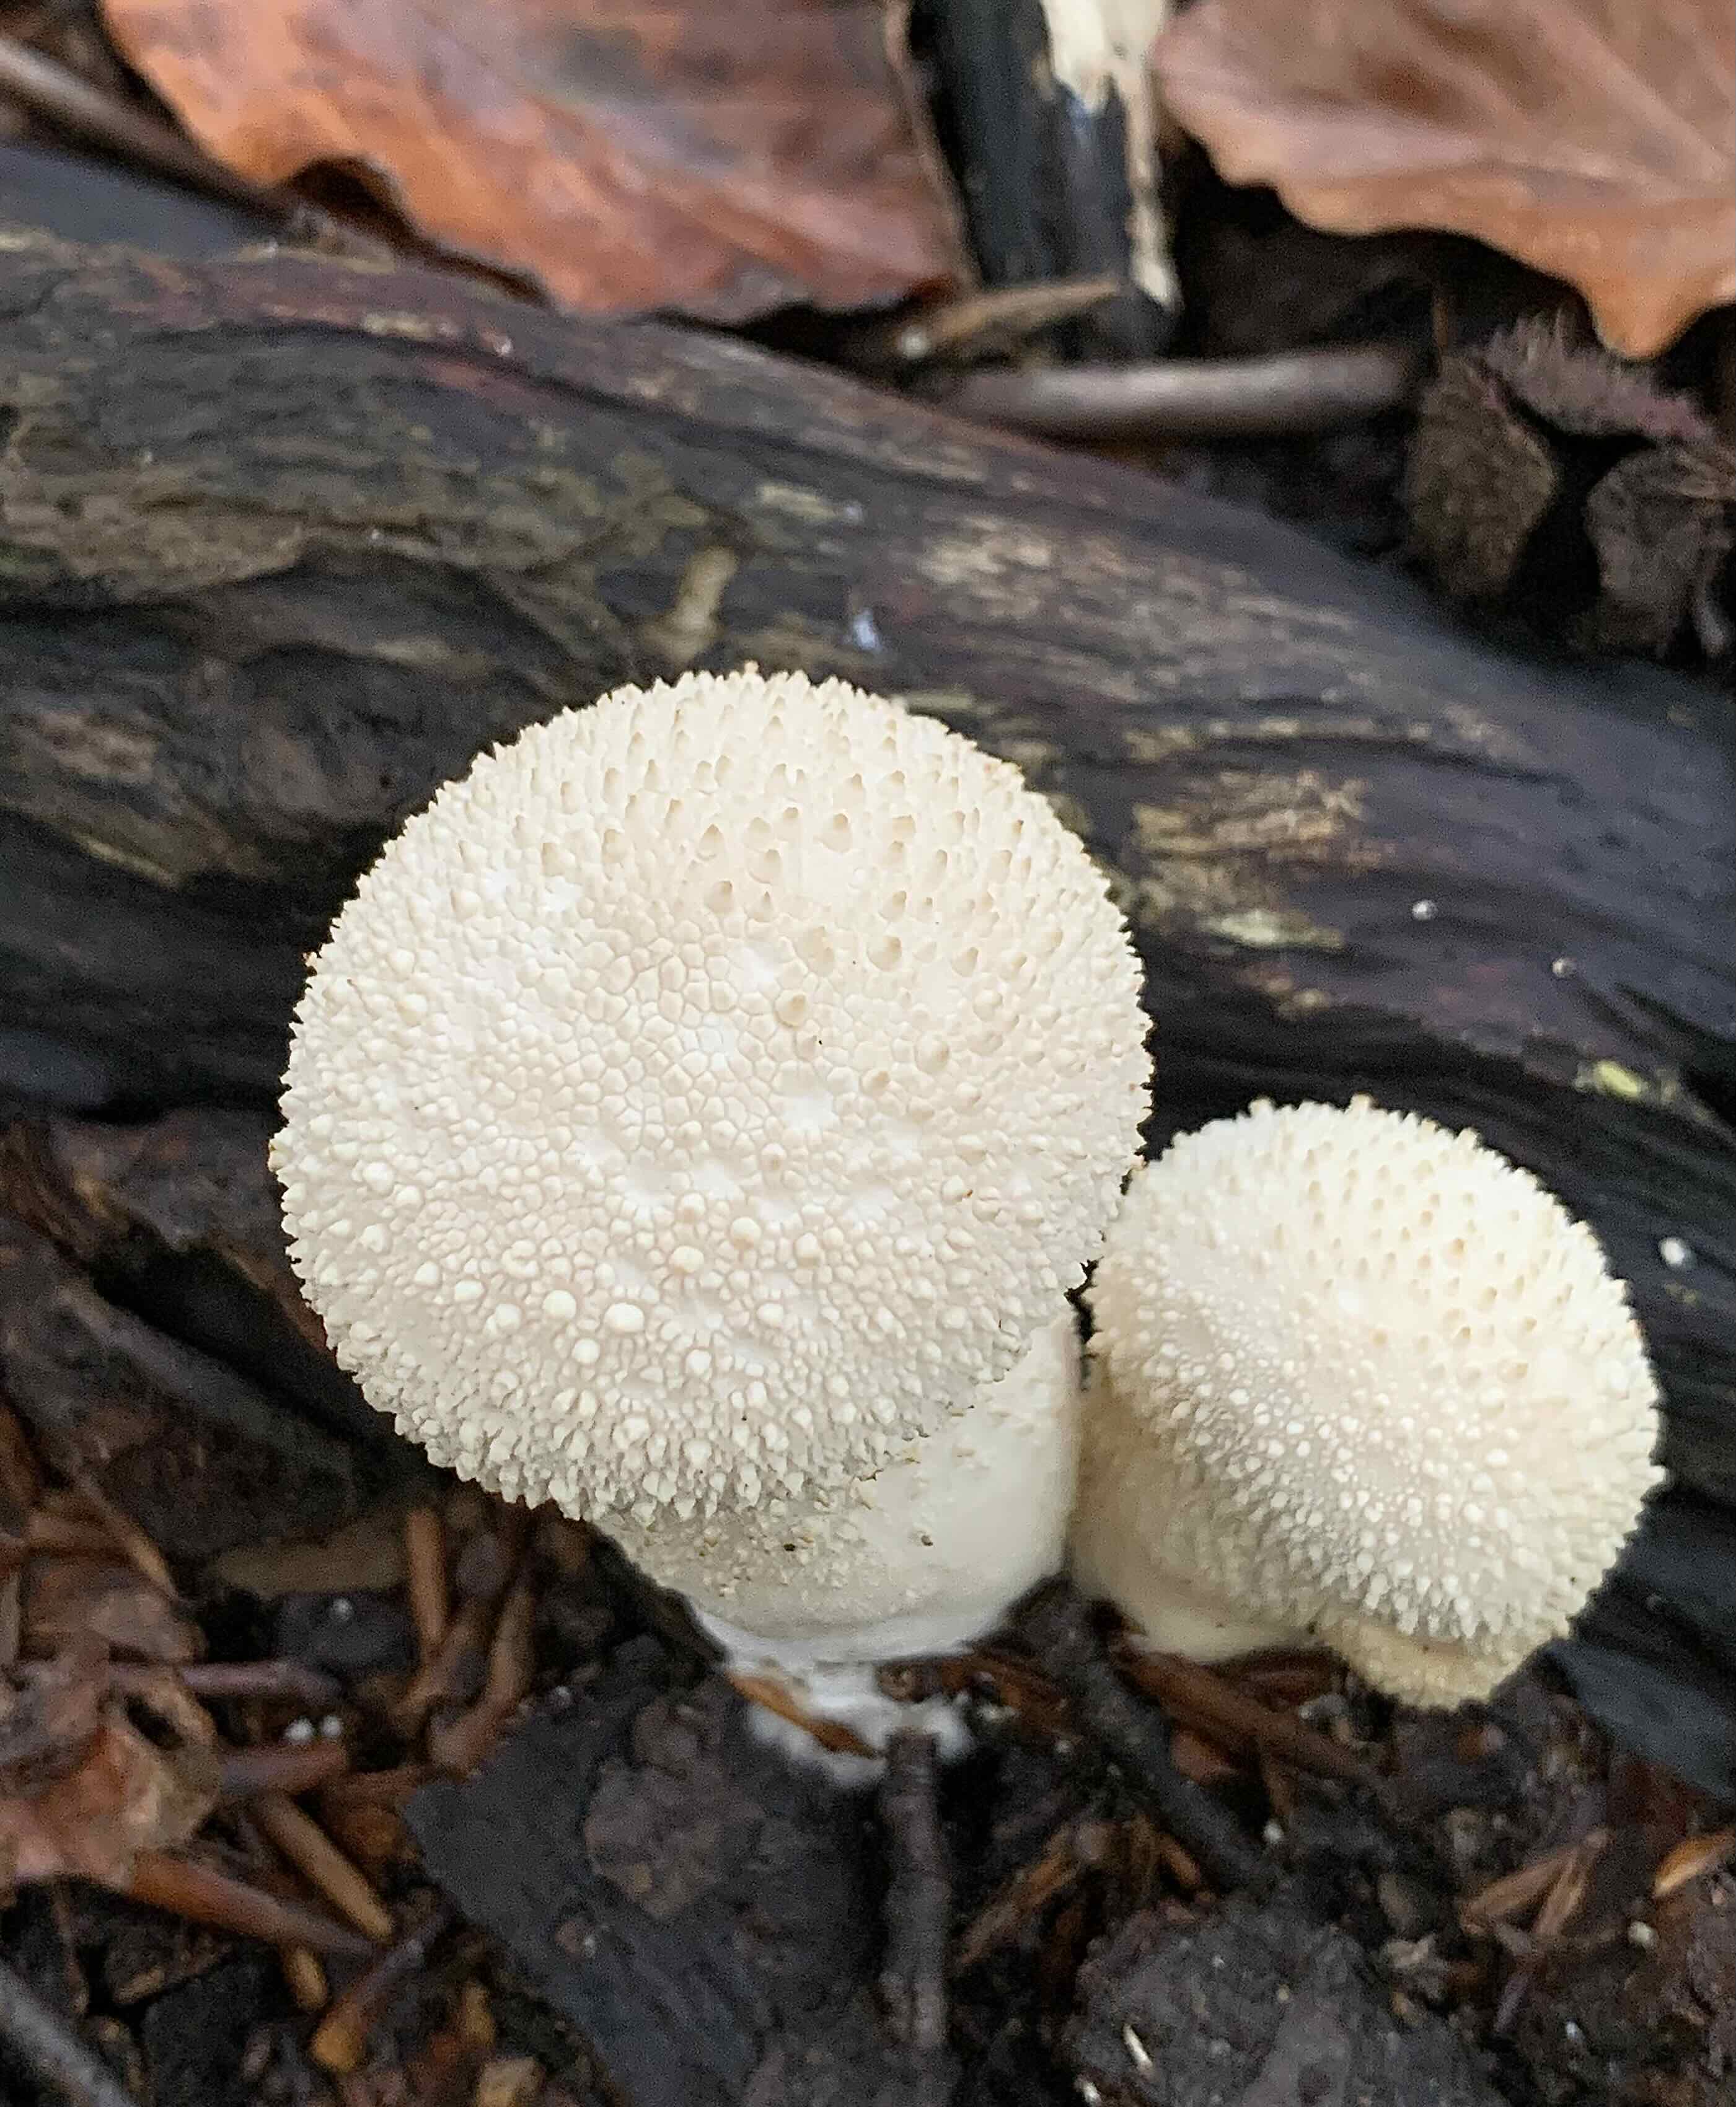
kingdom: Fungi
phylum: Basidiomycota
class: Agaricomycetes
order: Agaricales
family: Lycoperdaceae
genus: Lycoperdon
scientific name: Lycoperdon perlatum
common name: krystal-støvbold
